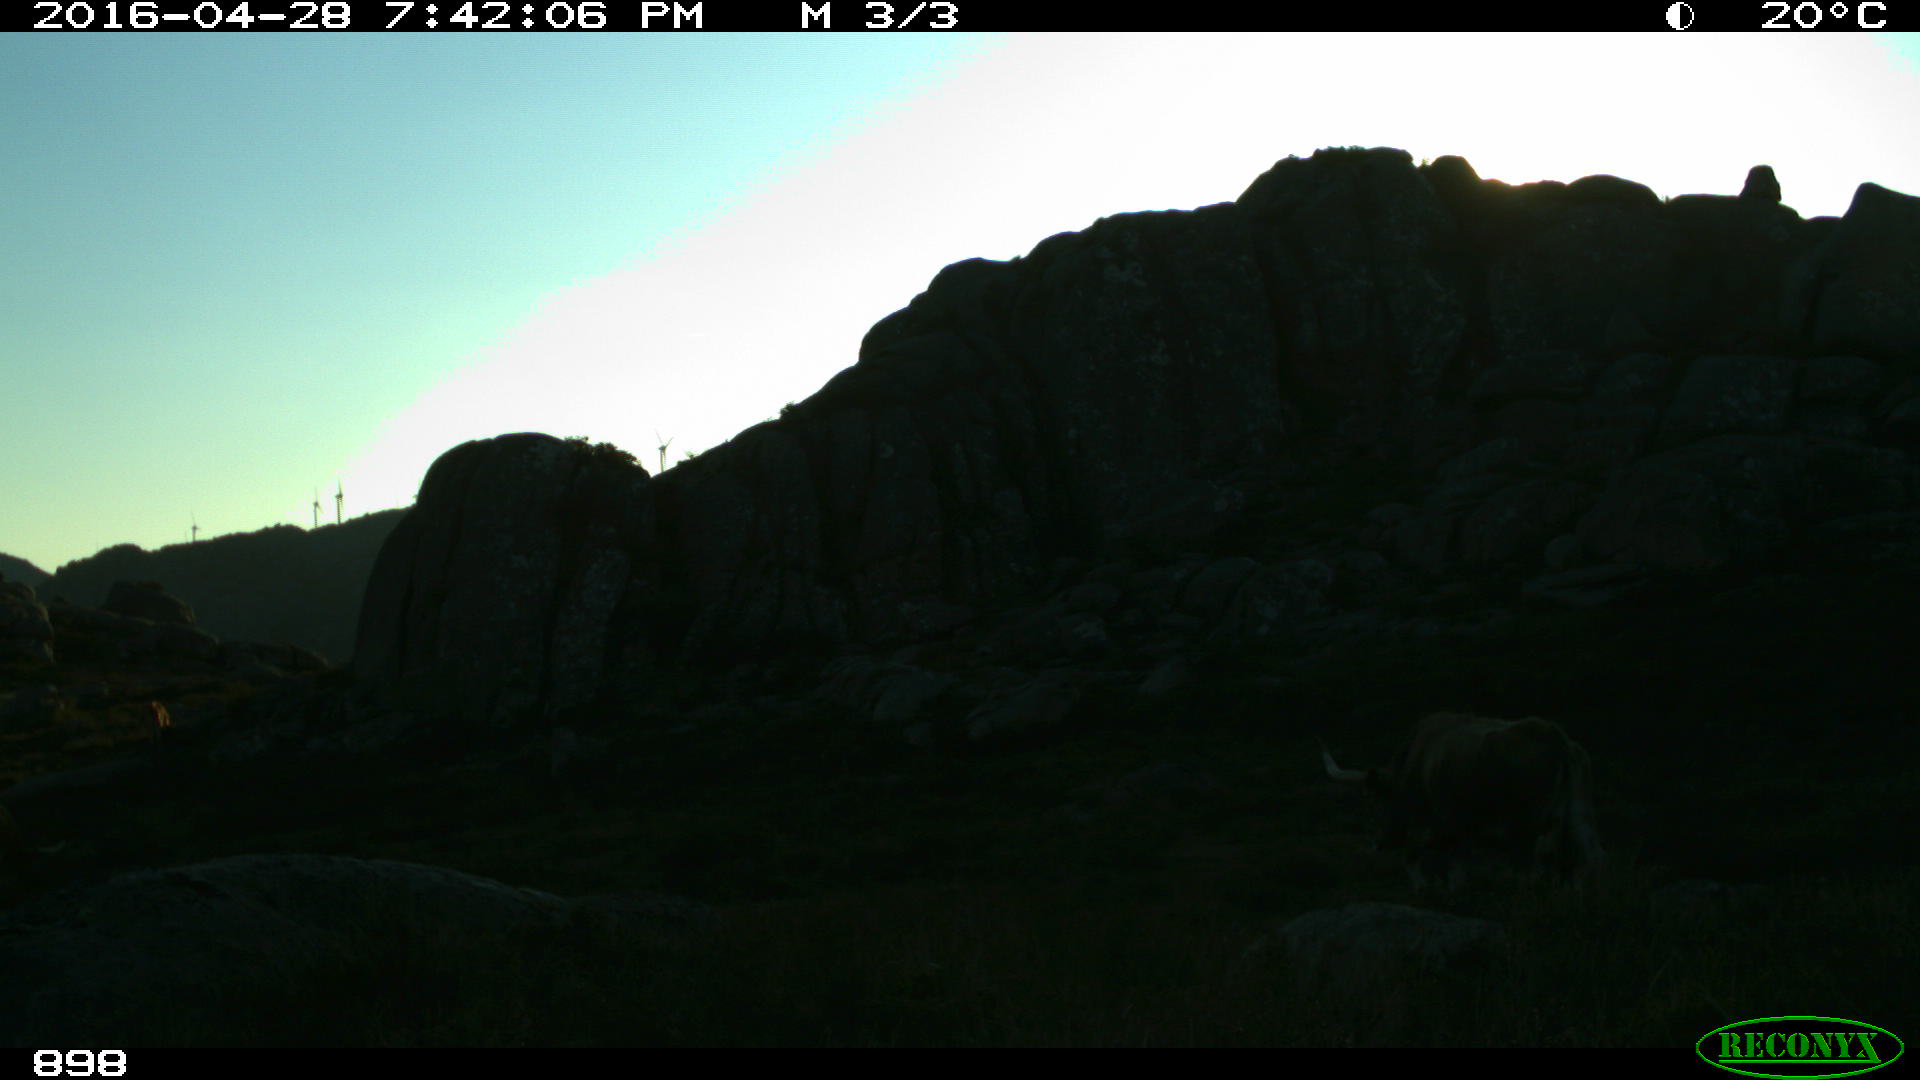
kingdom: Animalia
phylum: Chordata
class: Mammalia
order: Artiodactyla
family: Bovidae
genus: Bos
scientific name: Bos taurus
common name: Domesticated cattle
